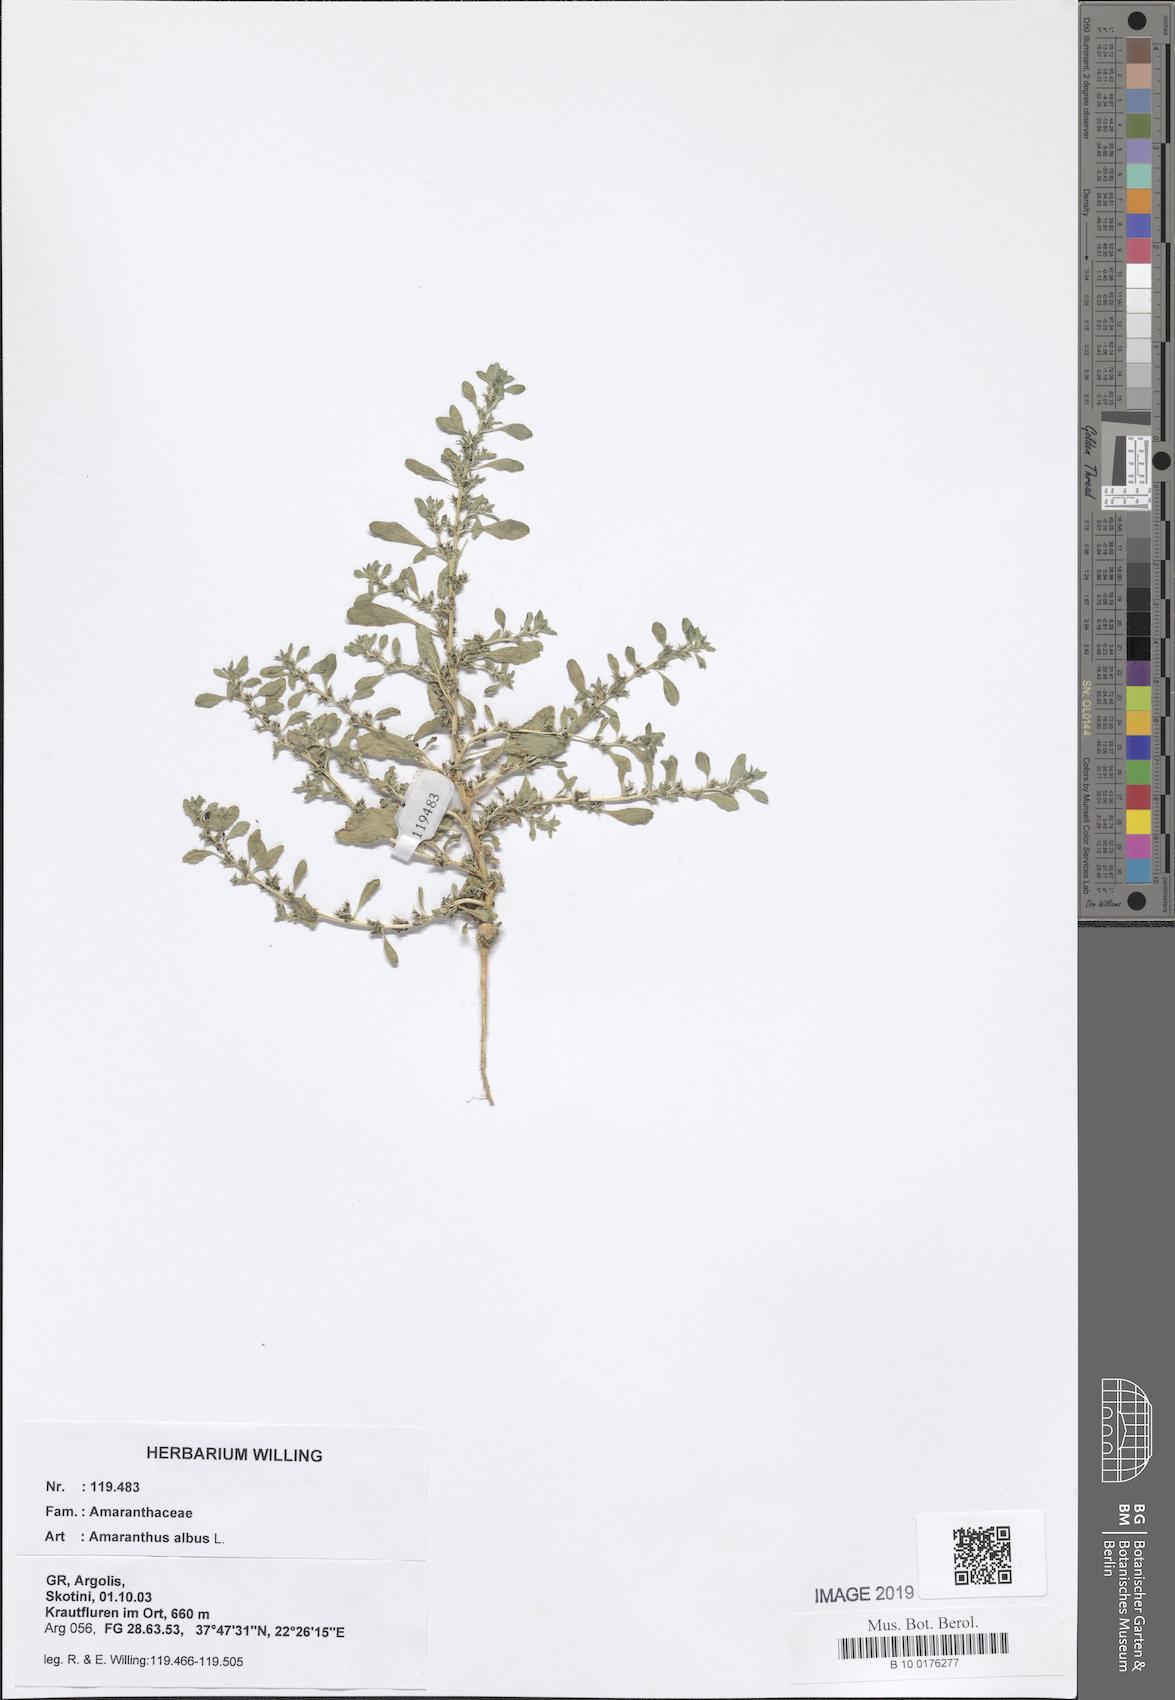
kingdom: Plantae
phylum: Tracheophyta
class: Magnoliopsida
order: Caryophyllales
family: Amaranthaceae
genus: Amaranthus
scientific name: Amaranthus albus
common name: White pigweed
